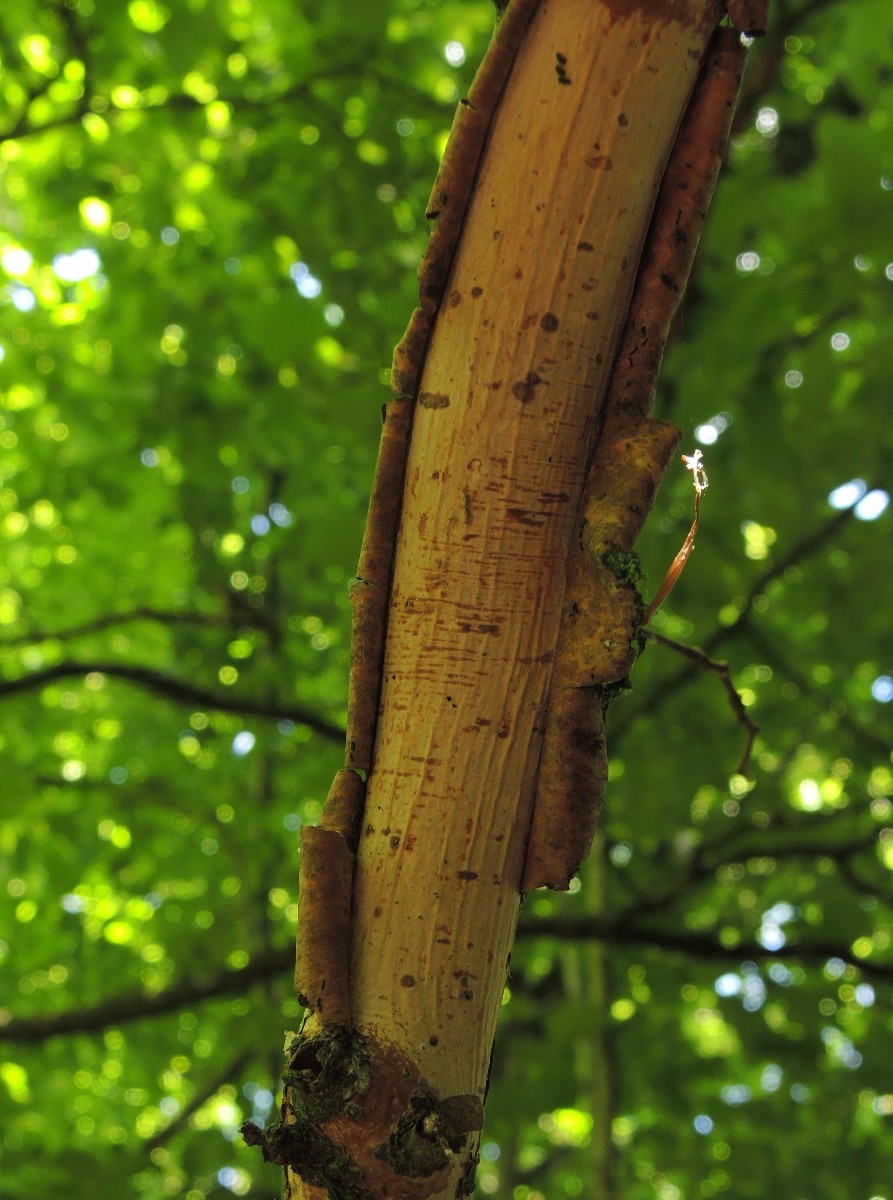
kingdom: Fungi
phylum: Basidiomycota
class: Agaricomycetes
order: Corticiales
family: Vuilleminiaceae
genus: Vuilleminia
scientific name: Vuilleminia coryli
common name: hassel-barksprænger
